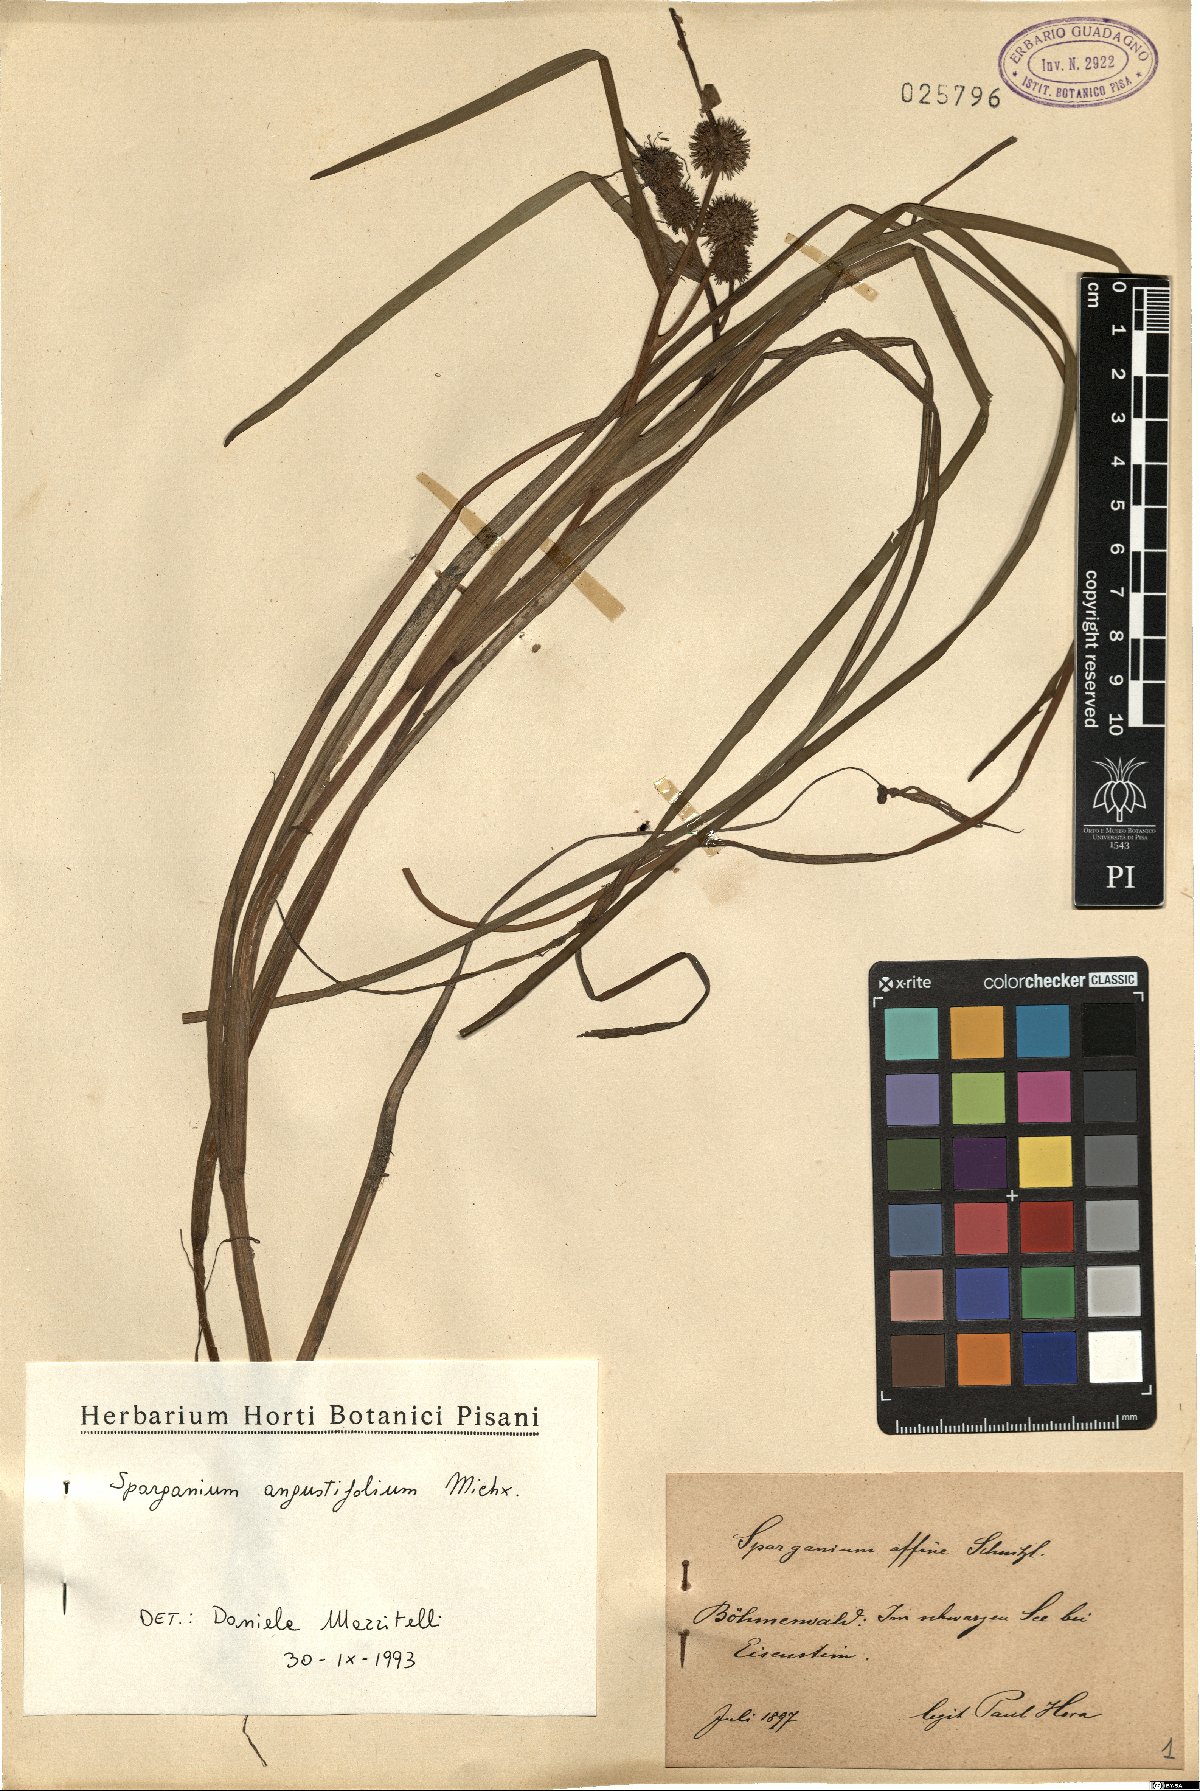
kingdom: Plantae
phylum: Tracheophyta
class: Liliopsida
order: Poales
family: Typhaceae
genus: Sparganium
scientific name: Sparganium angustifolium
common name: Floating bur-reed
